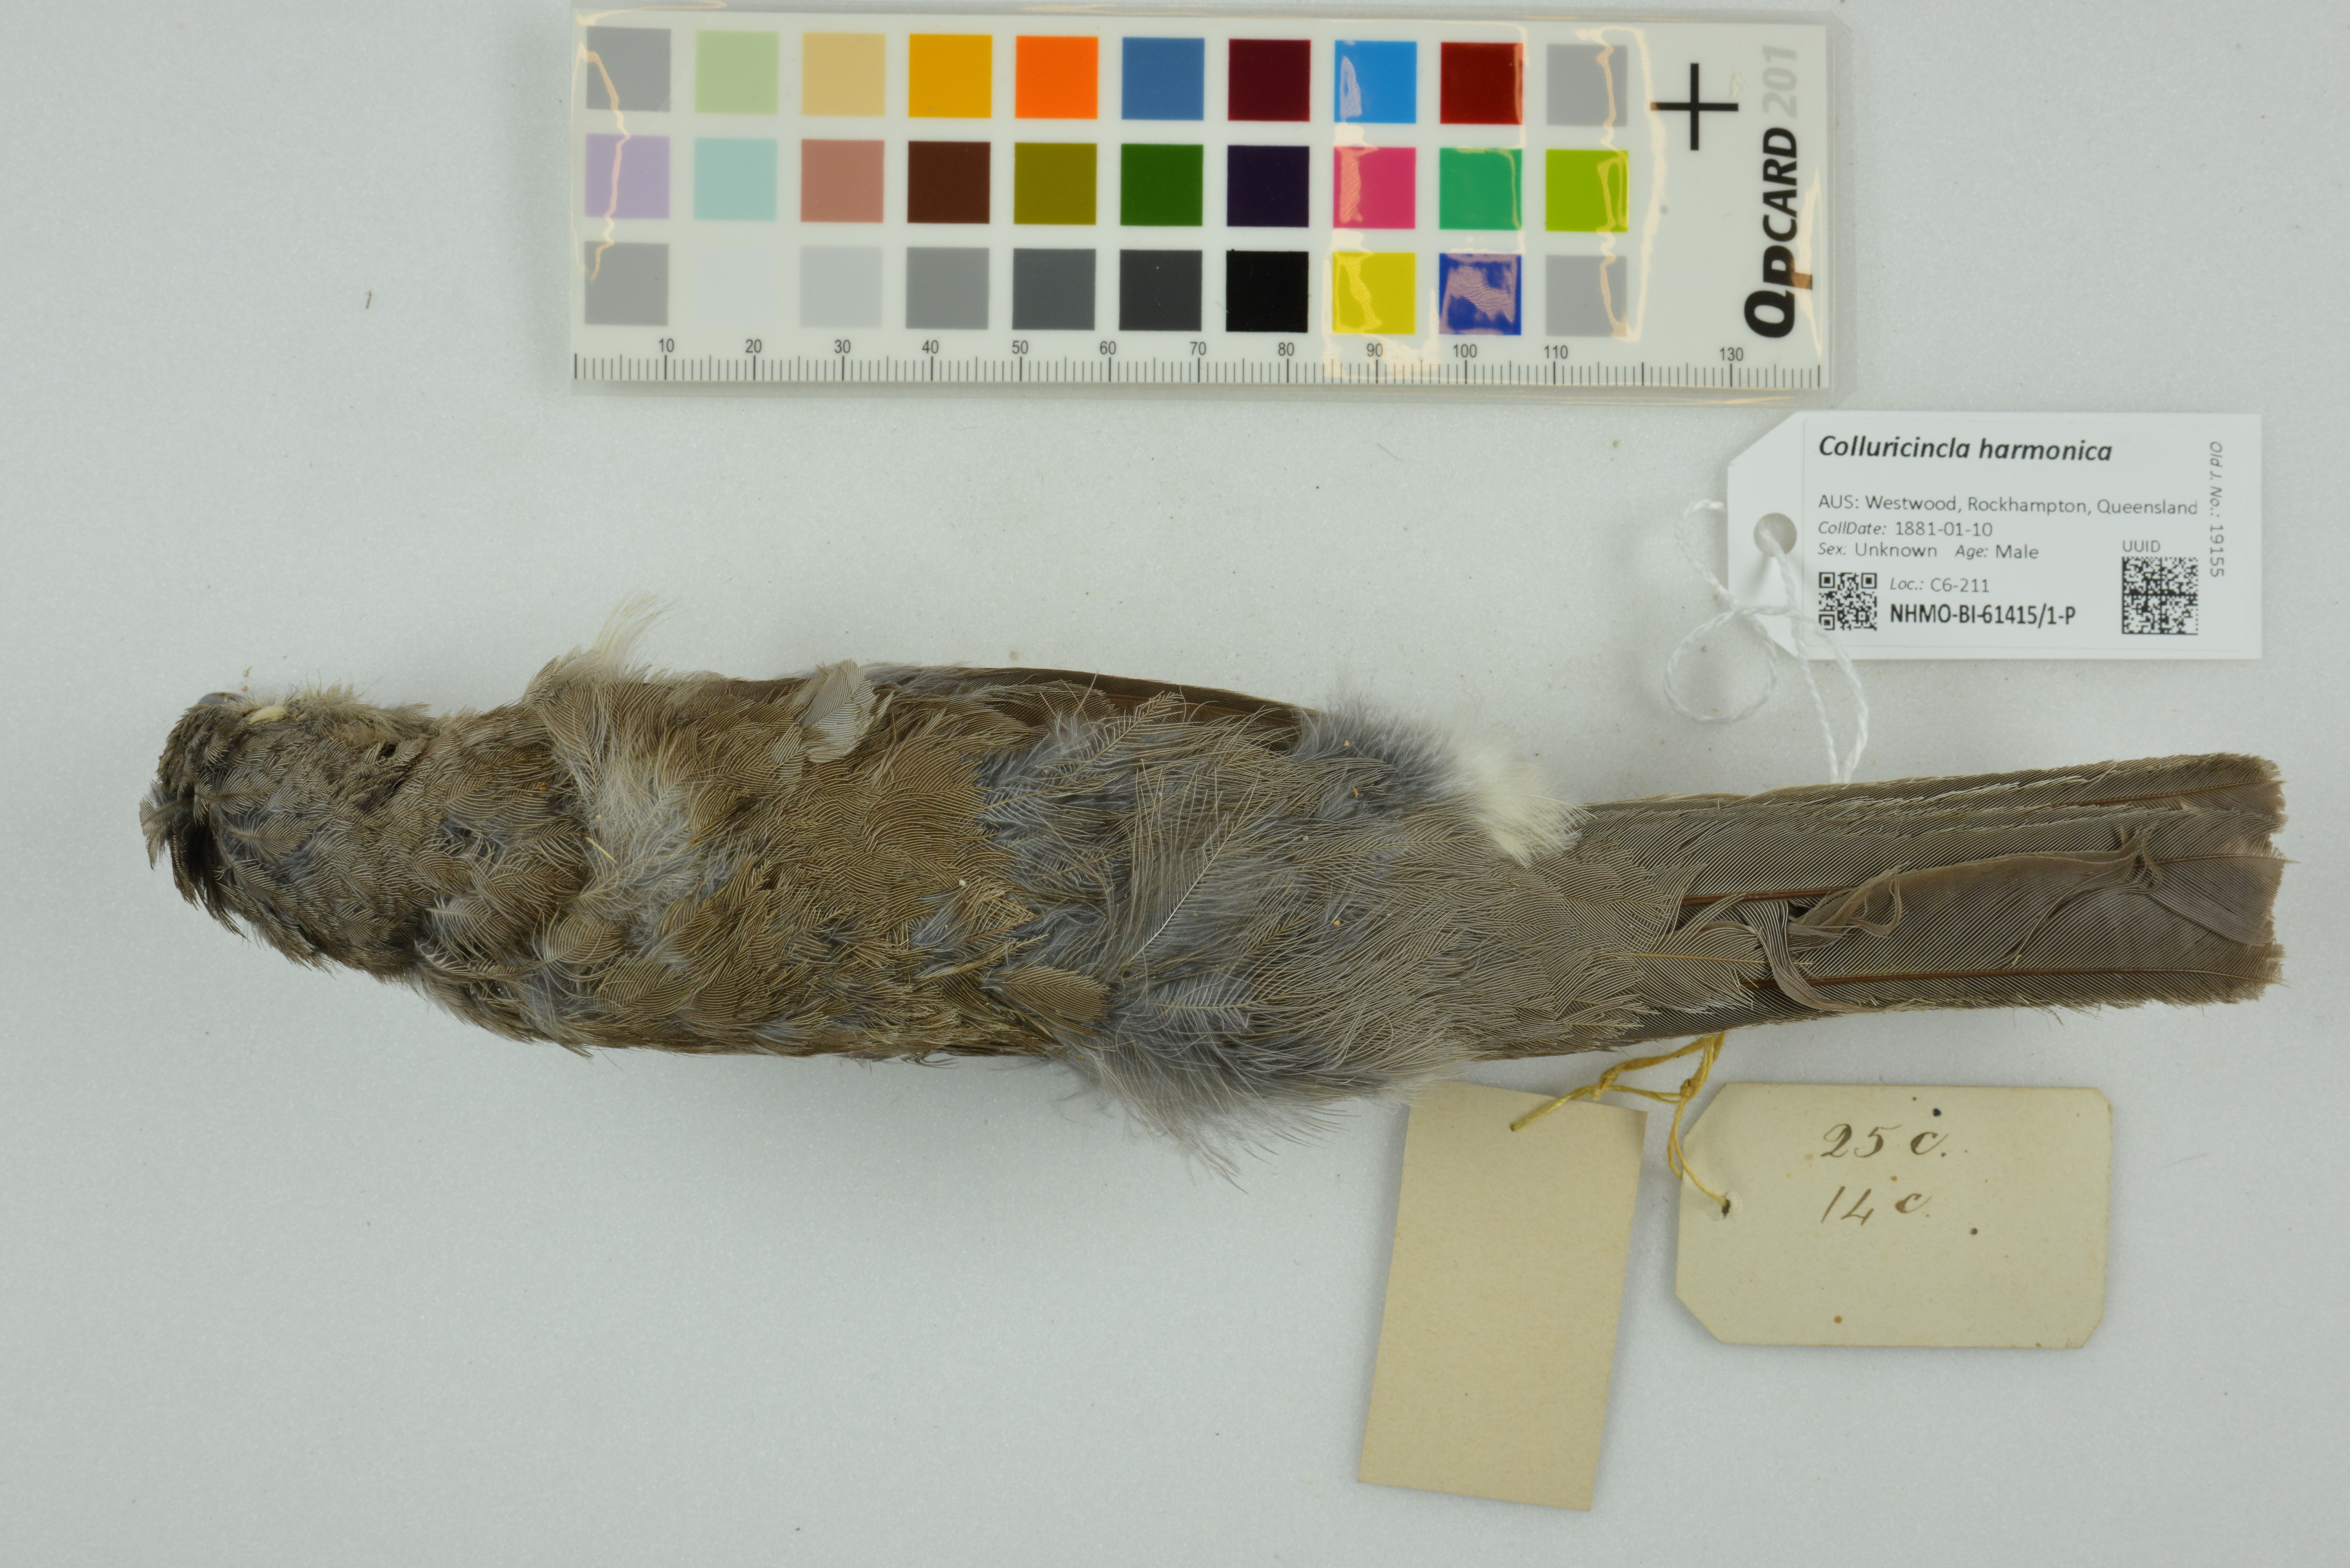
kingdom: Animalia
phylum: Chordata
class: Aves
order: Passeriformes
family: Pachycephalidae
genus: Colluricincla
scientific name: Colluricincla harmonica
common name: Grey shrikethrush
